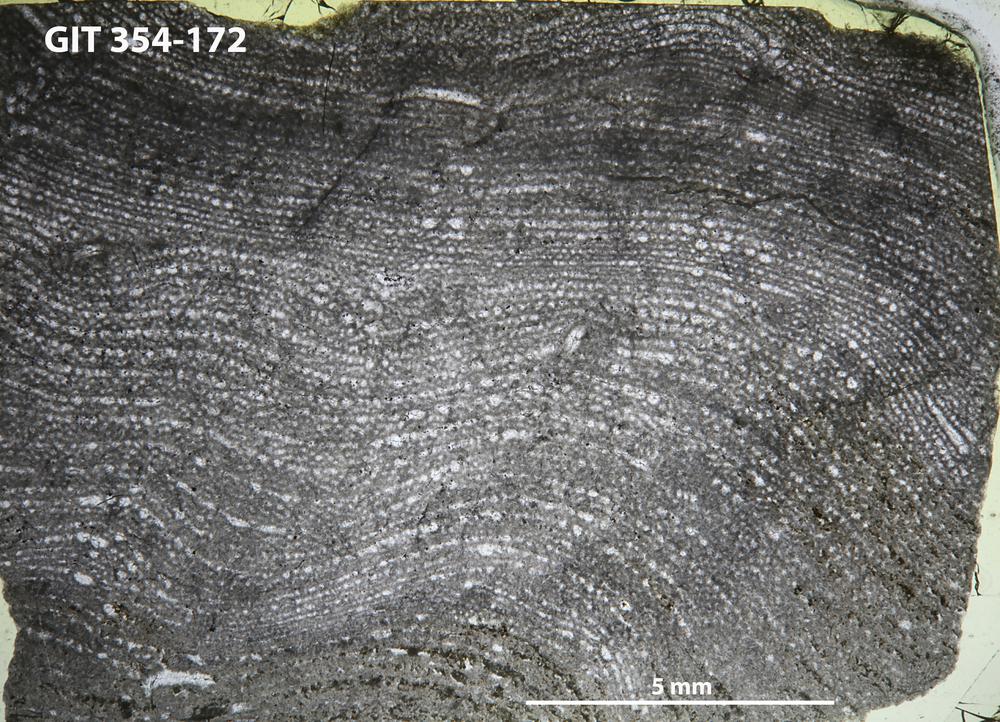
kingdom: Animalia
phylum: Porifera
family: Clathrodictyidae
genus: Clathrodictyon
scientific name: Clathrodictyon kudriavzevi
